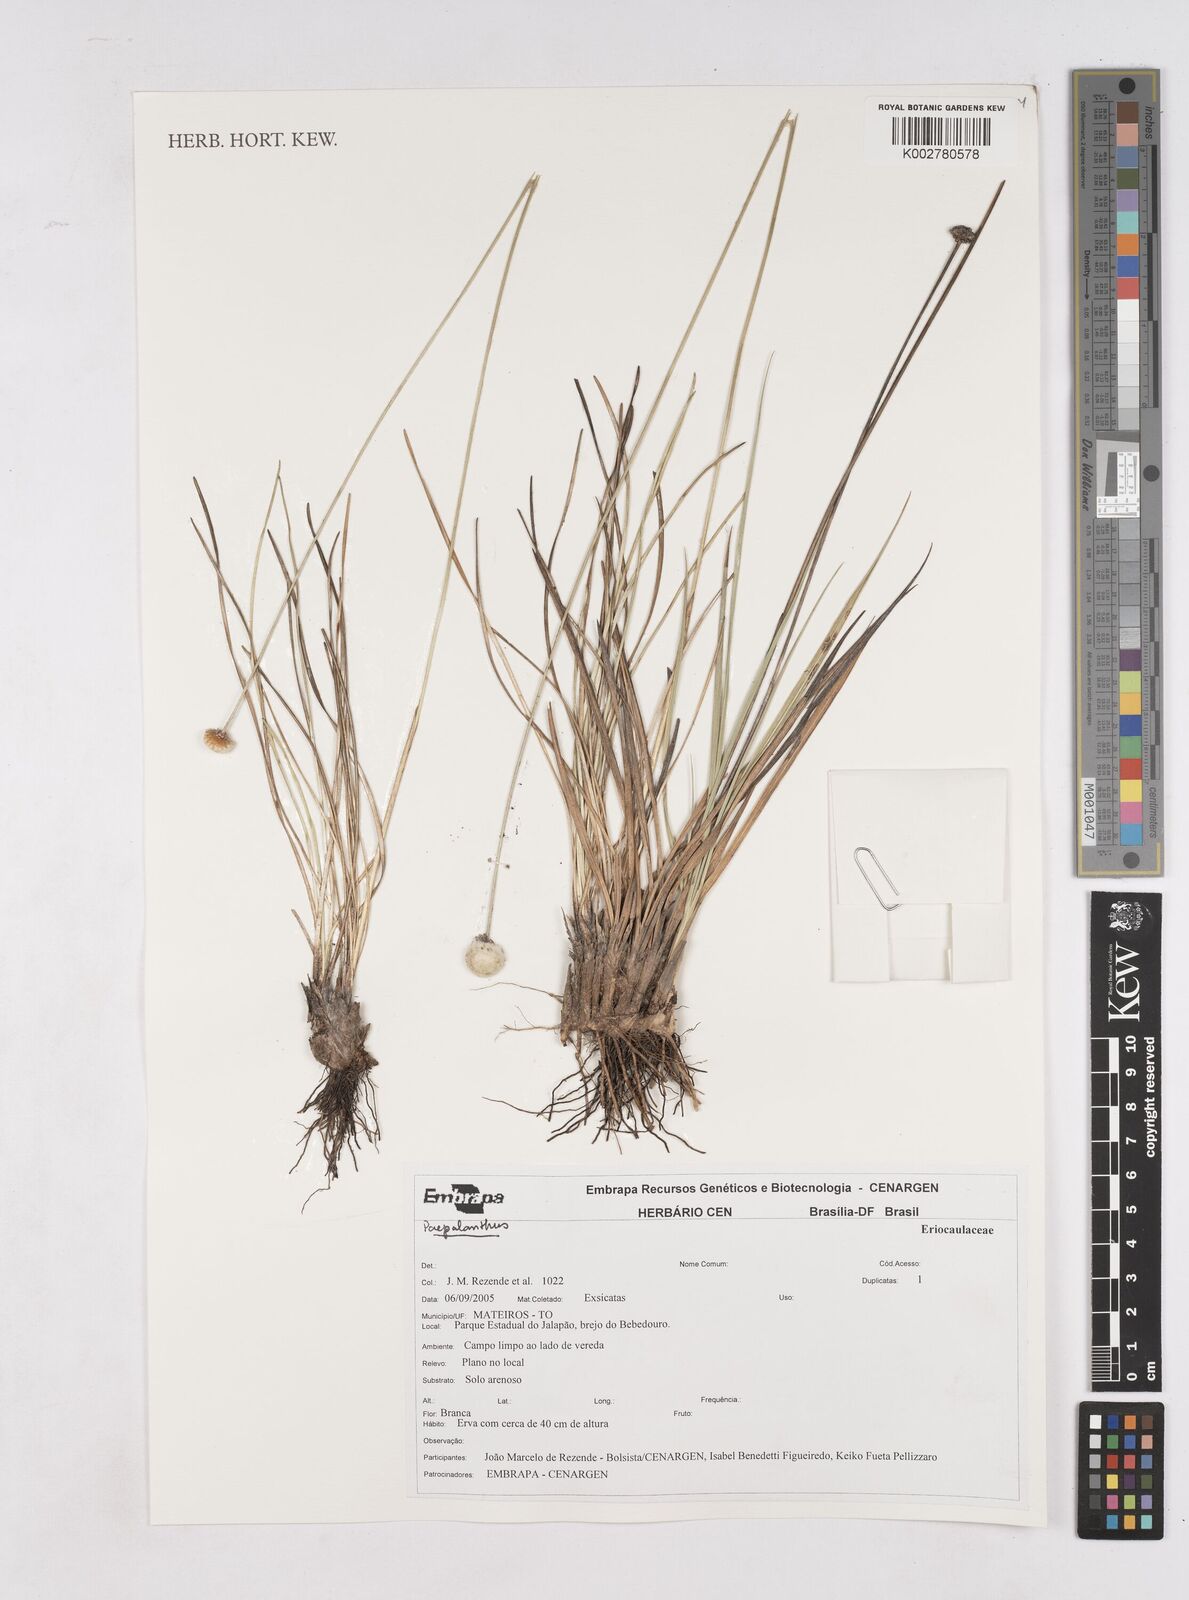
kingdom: Plantae
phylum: Tracheophyta
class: Liliopsida
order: Poales
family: Eriocaulaceae
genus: Paepalanthus
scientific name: Paepalanthus cipoensis
